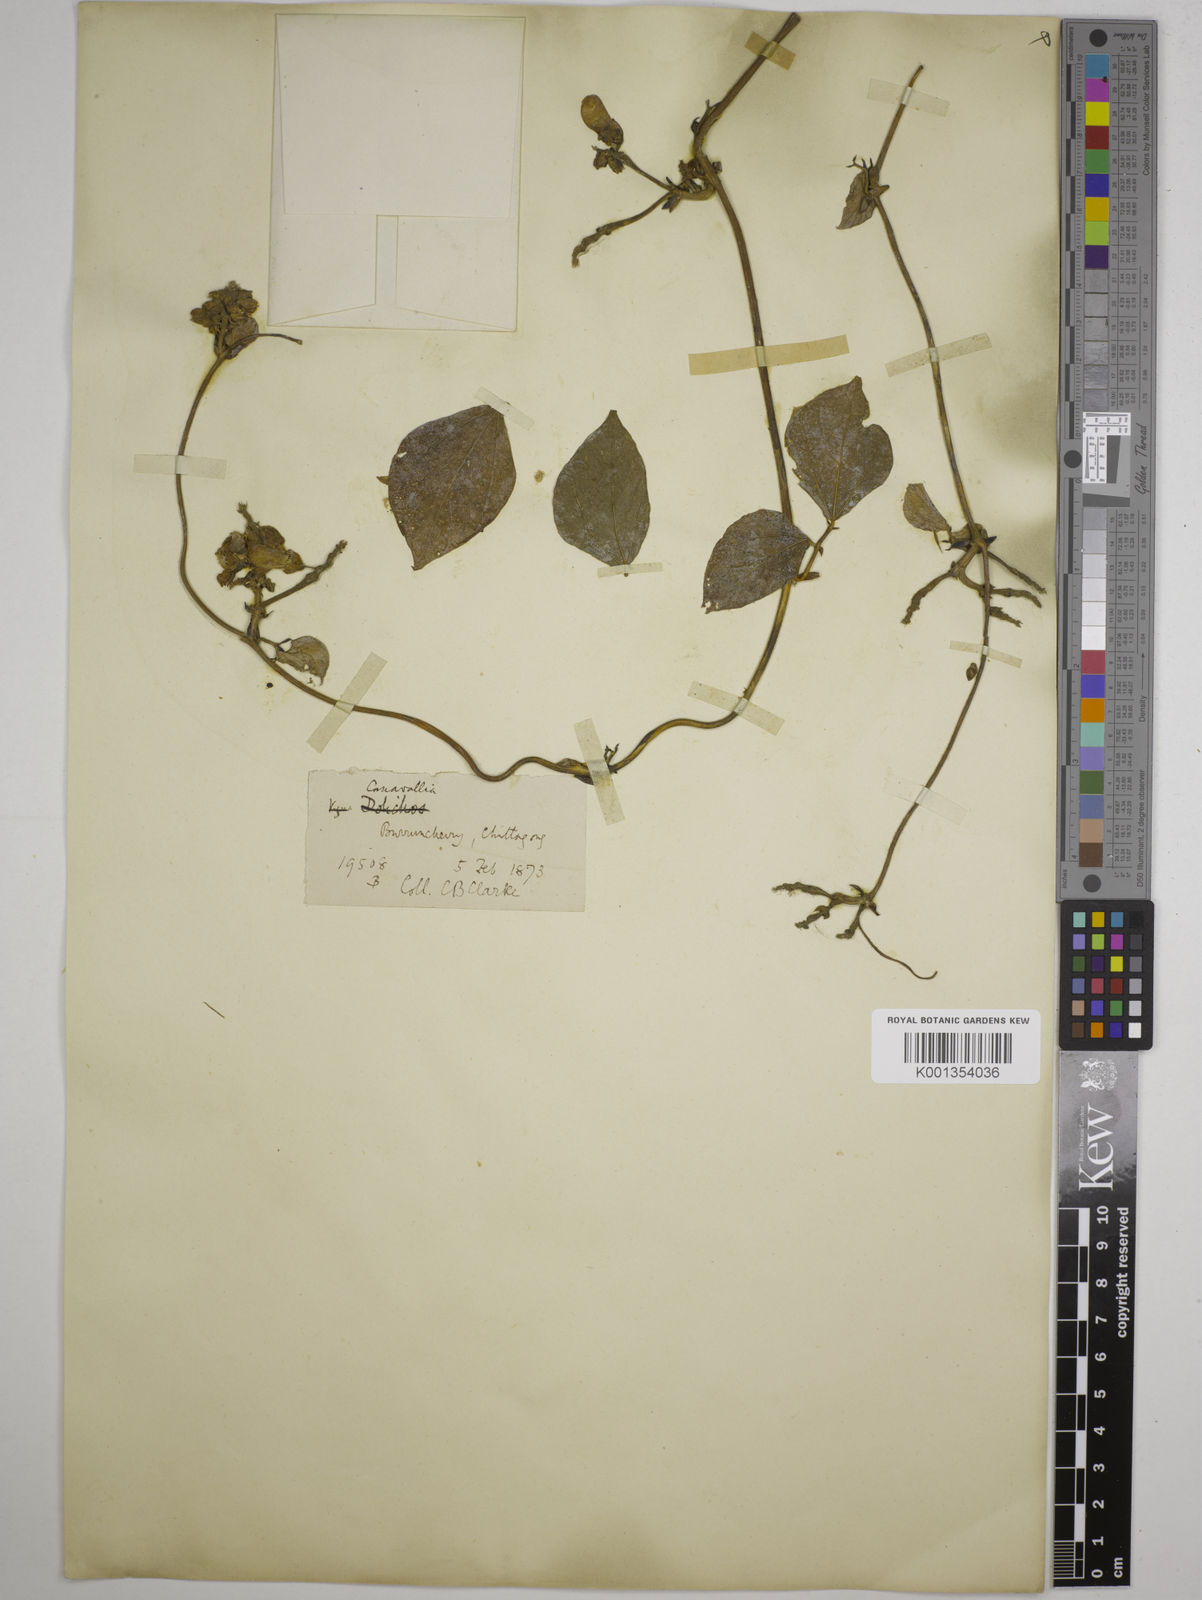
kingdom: Plantae
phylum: Tracheophyta
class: Magnoliopsida
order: Fabales
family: Fabaceae
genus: Wajira
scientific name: Wajira grahamiana
